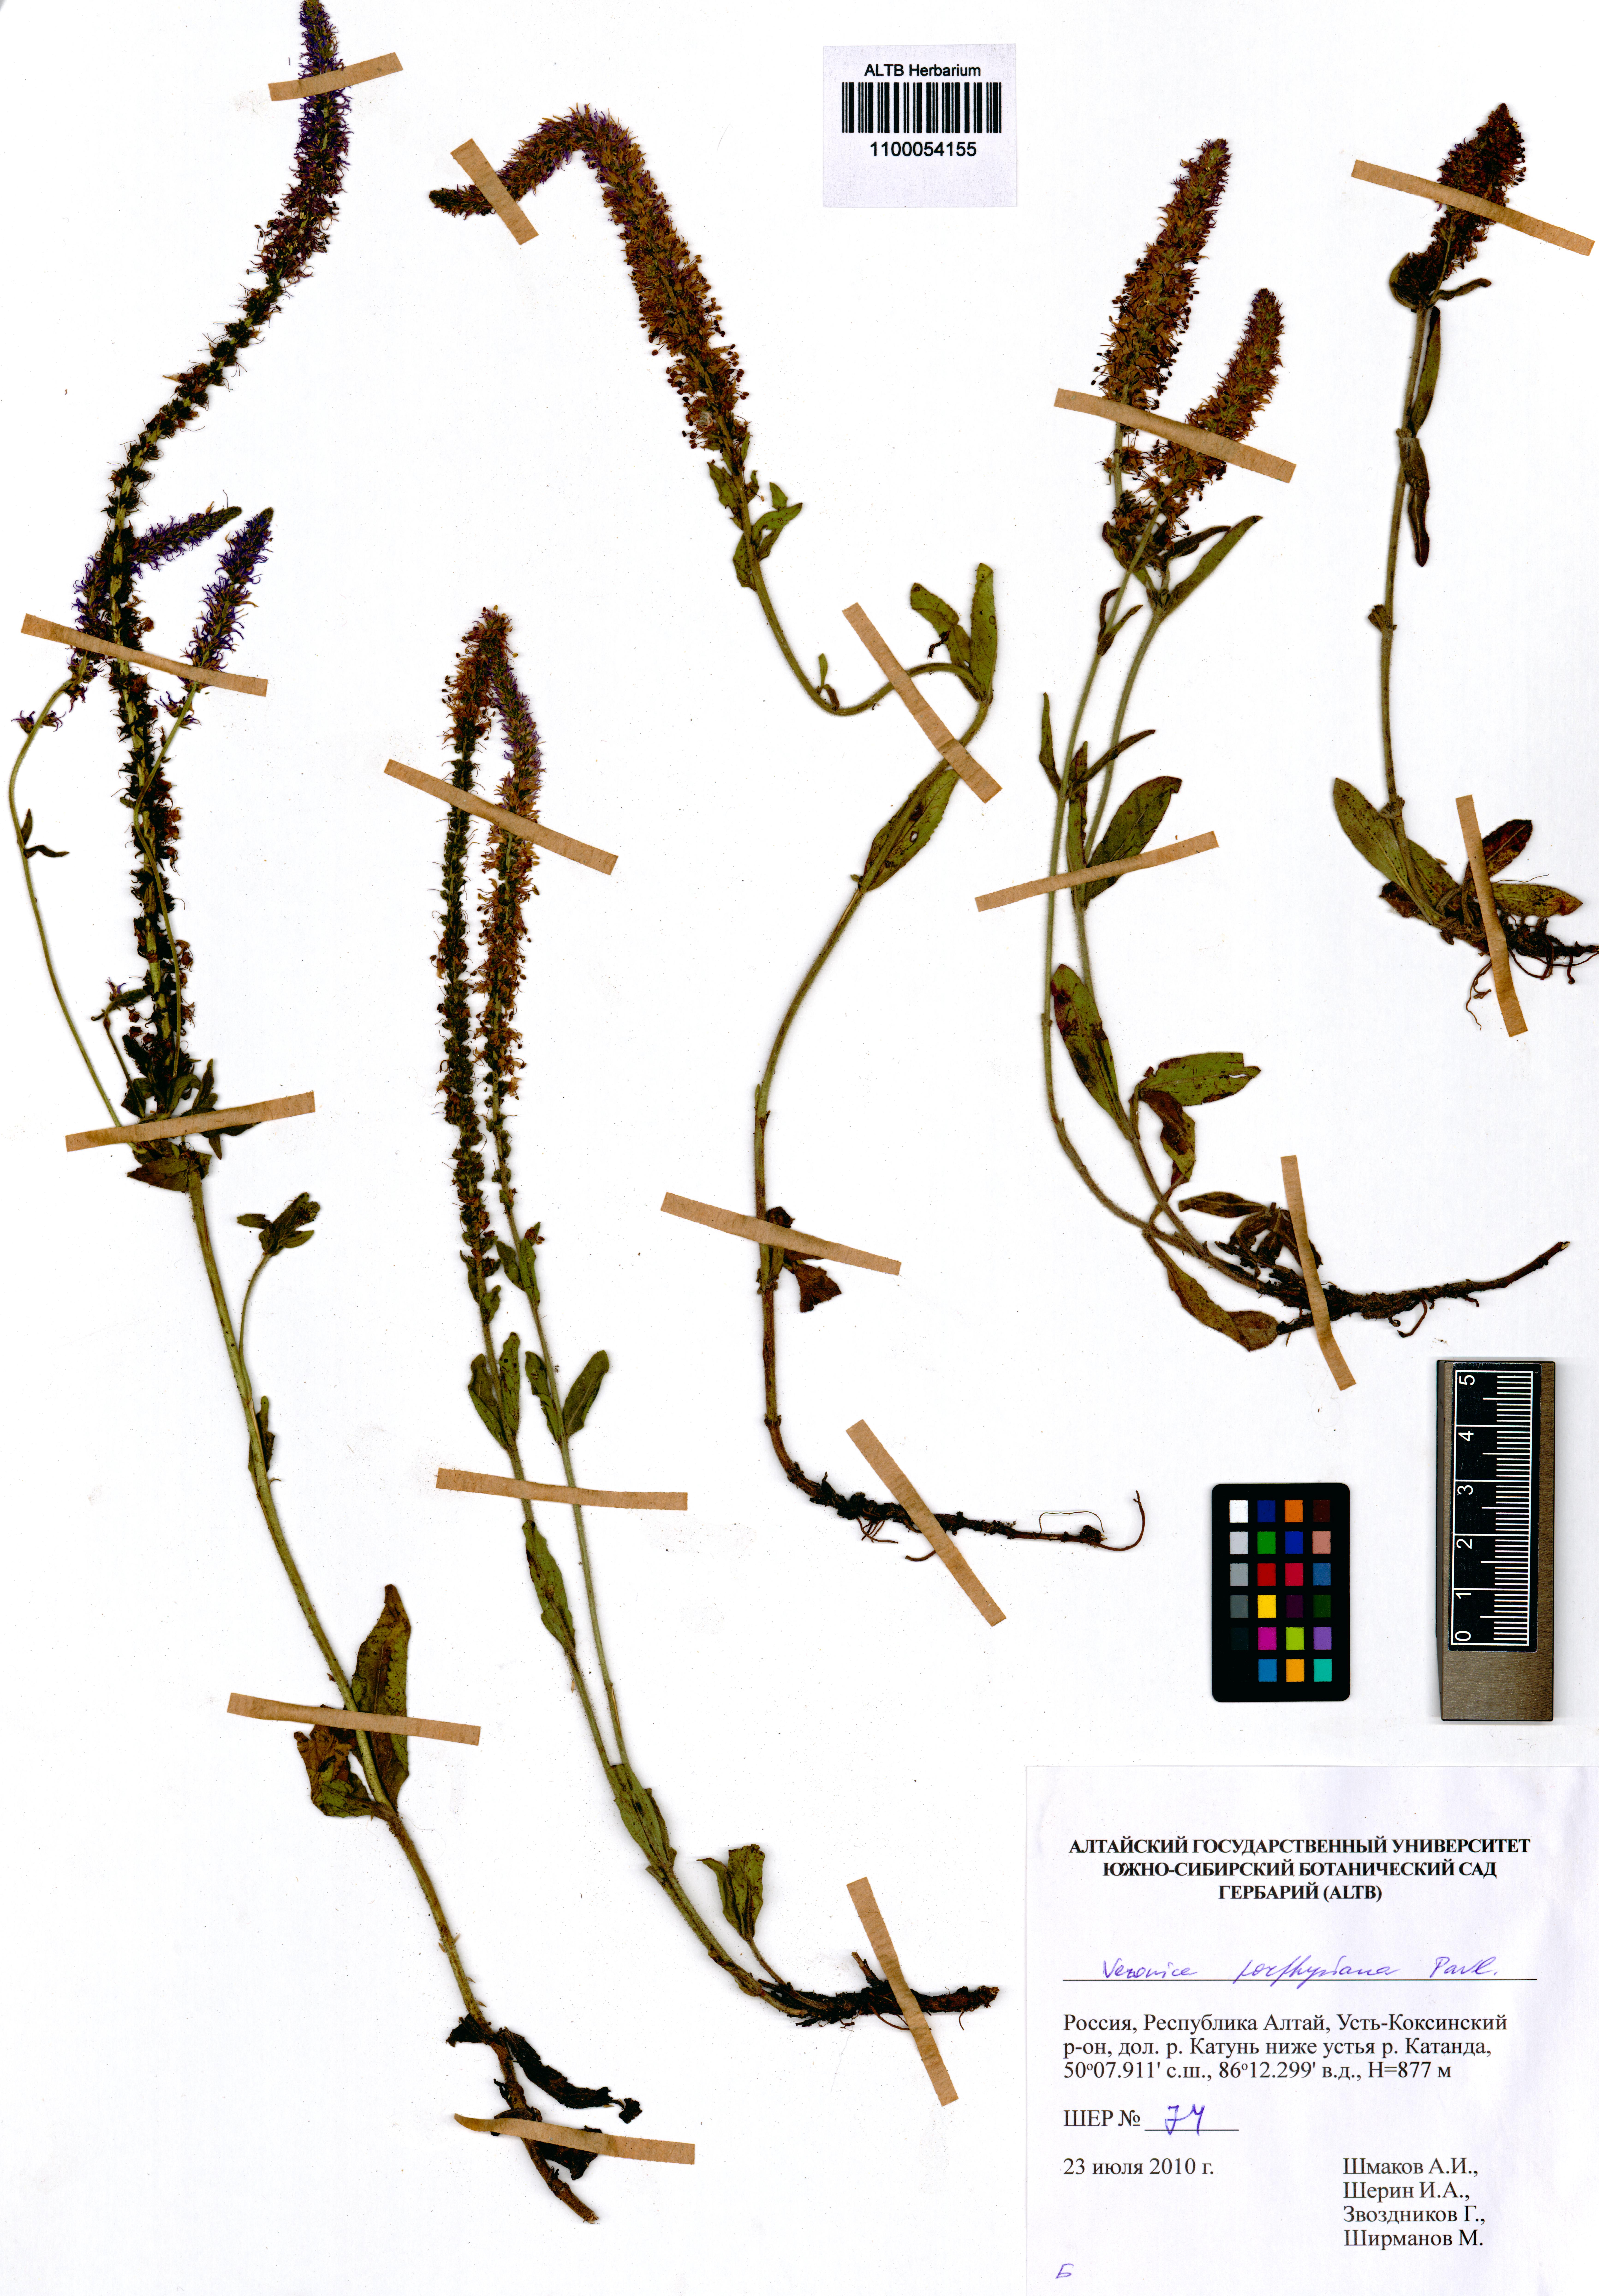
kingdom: Plantae
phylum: Tracheophyta
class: Magnoliopsida
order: Lamiales
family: Plantaginaceae
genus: Veronica
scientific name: Veronica porphyriana
